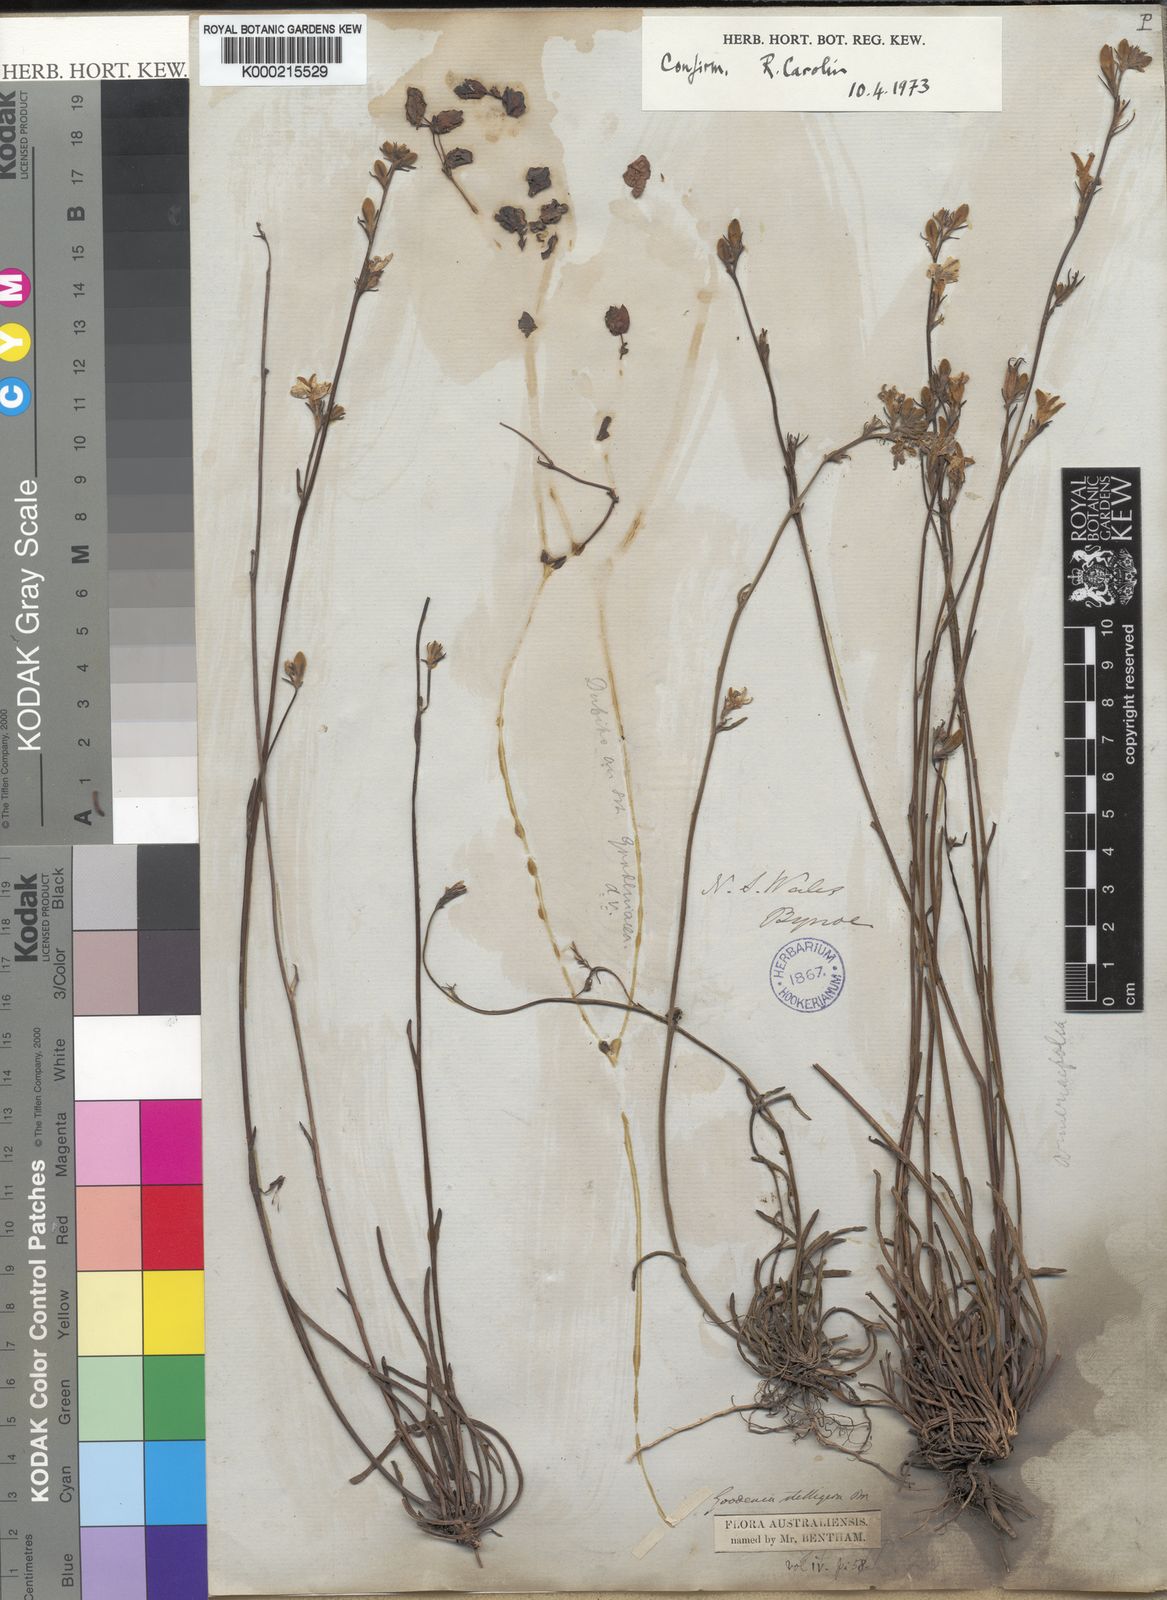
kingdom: Plantae
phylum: Tracheophyta
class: Magnoliopsida
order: Asterales
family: Goodeniaceae
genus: Goodenia
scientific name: Goodenia stelligera
